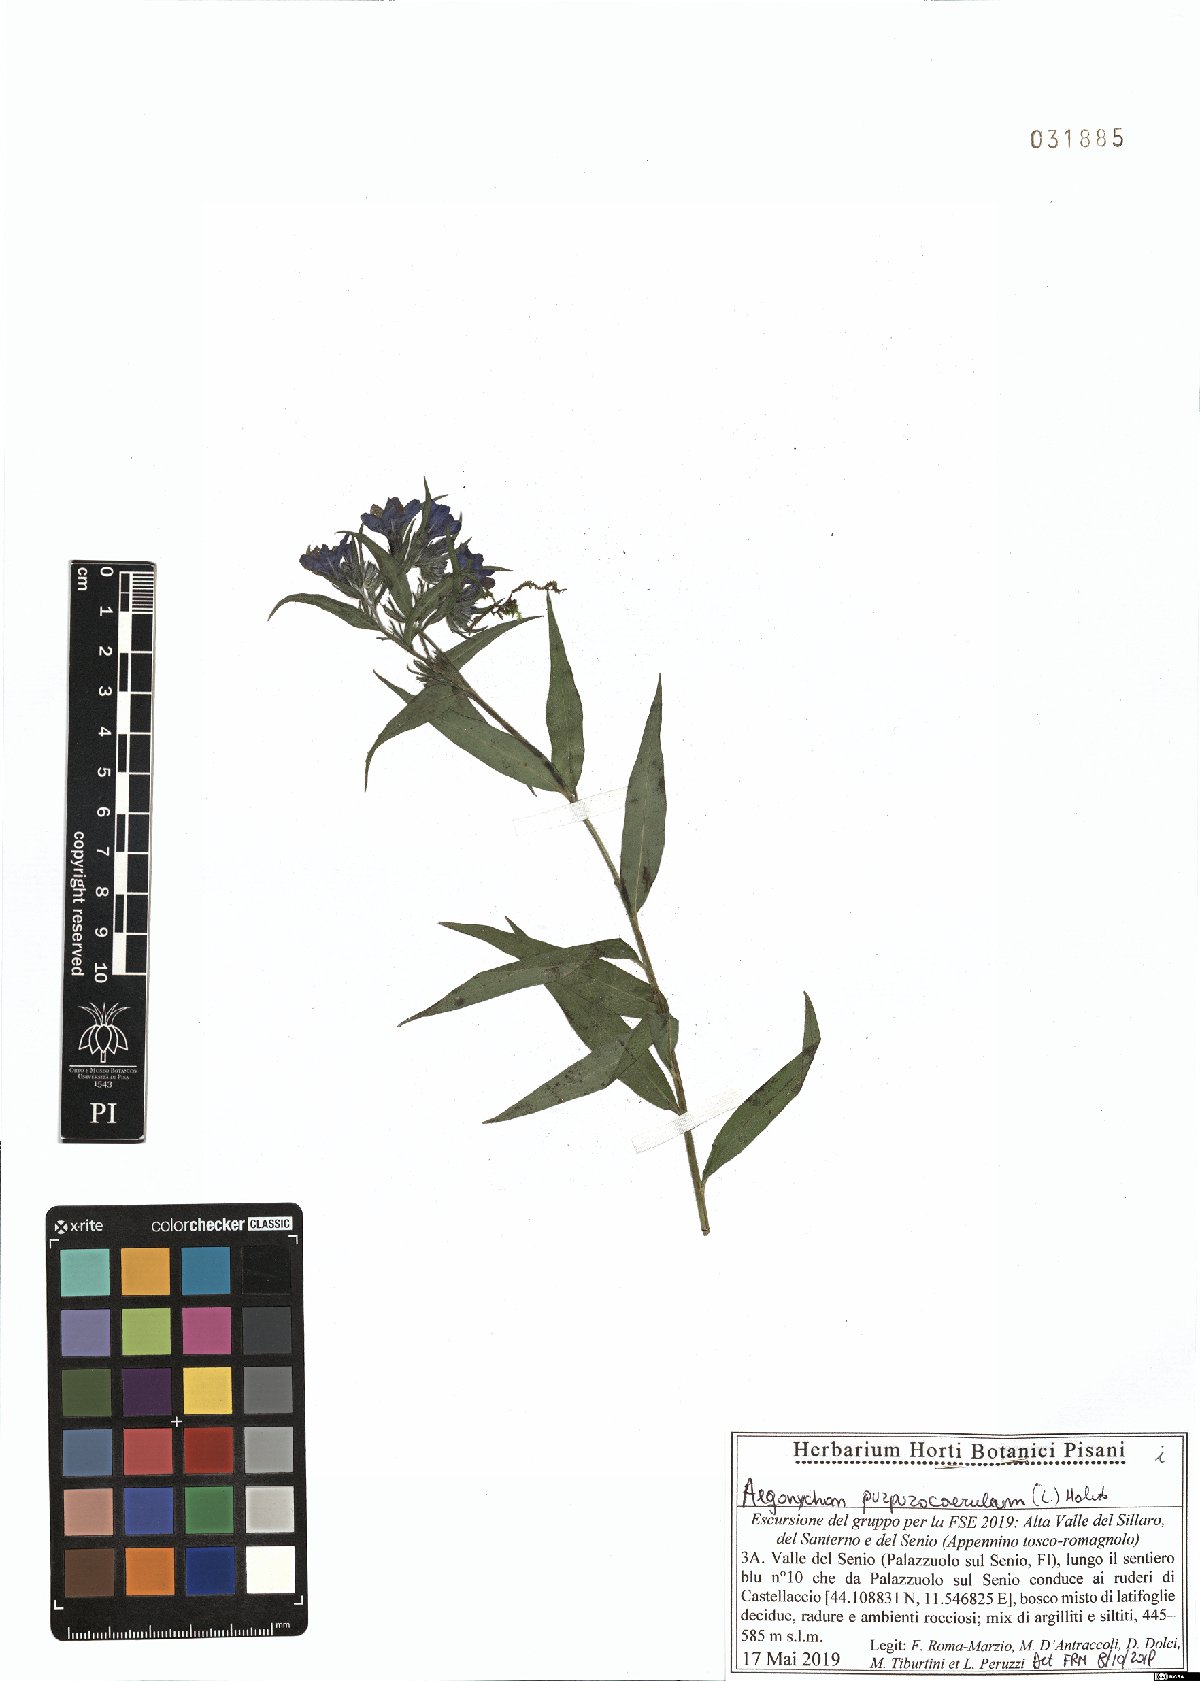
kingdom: Plantae
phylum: Tracheophyta
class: Magnoliopsida
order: Boraginales
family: Boraginaceae
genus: Aegonychon
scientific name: Aegonychon purpurocaeruleum
